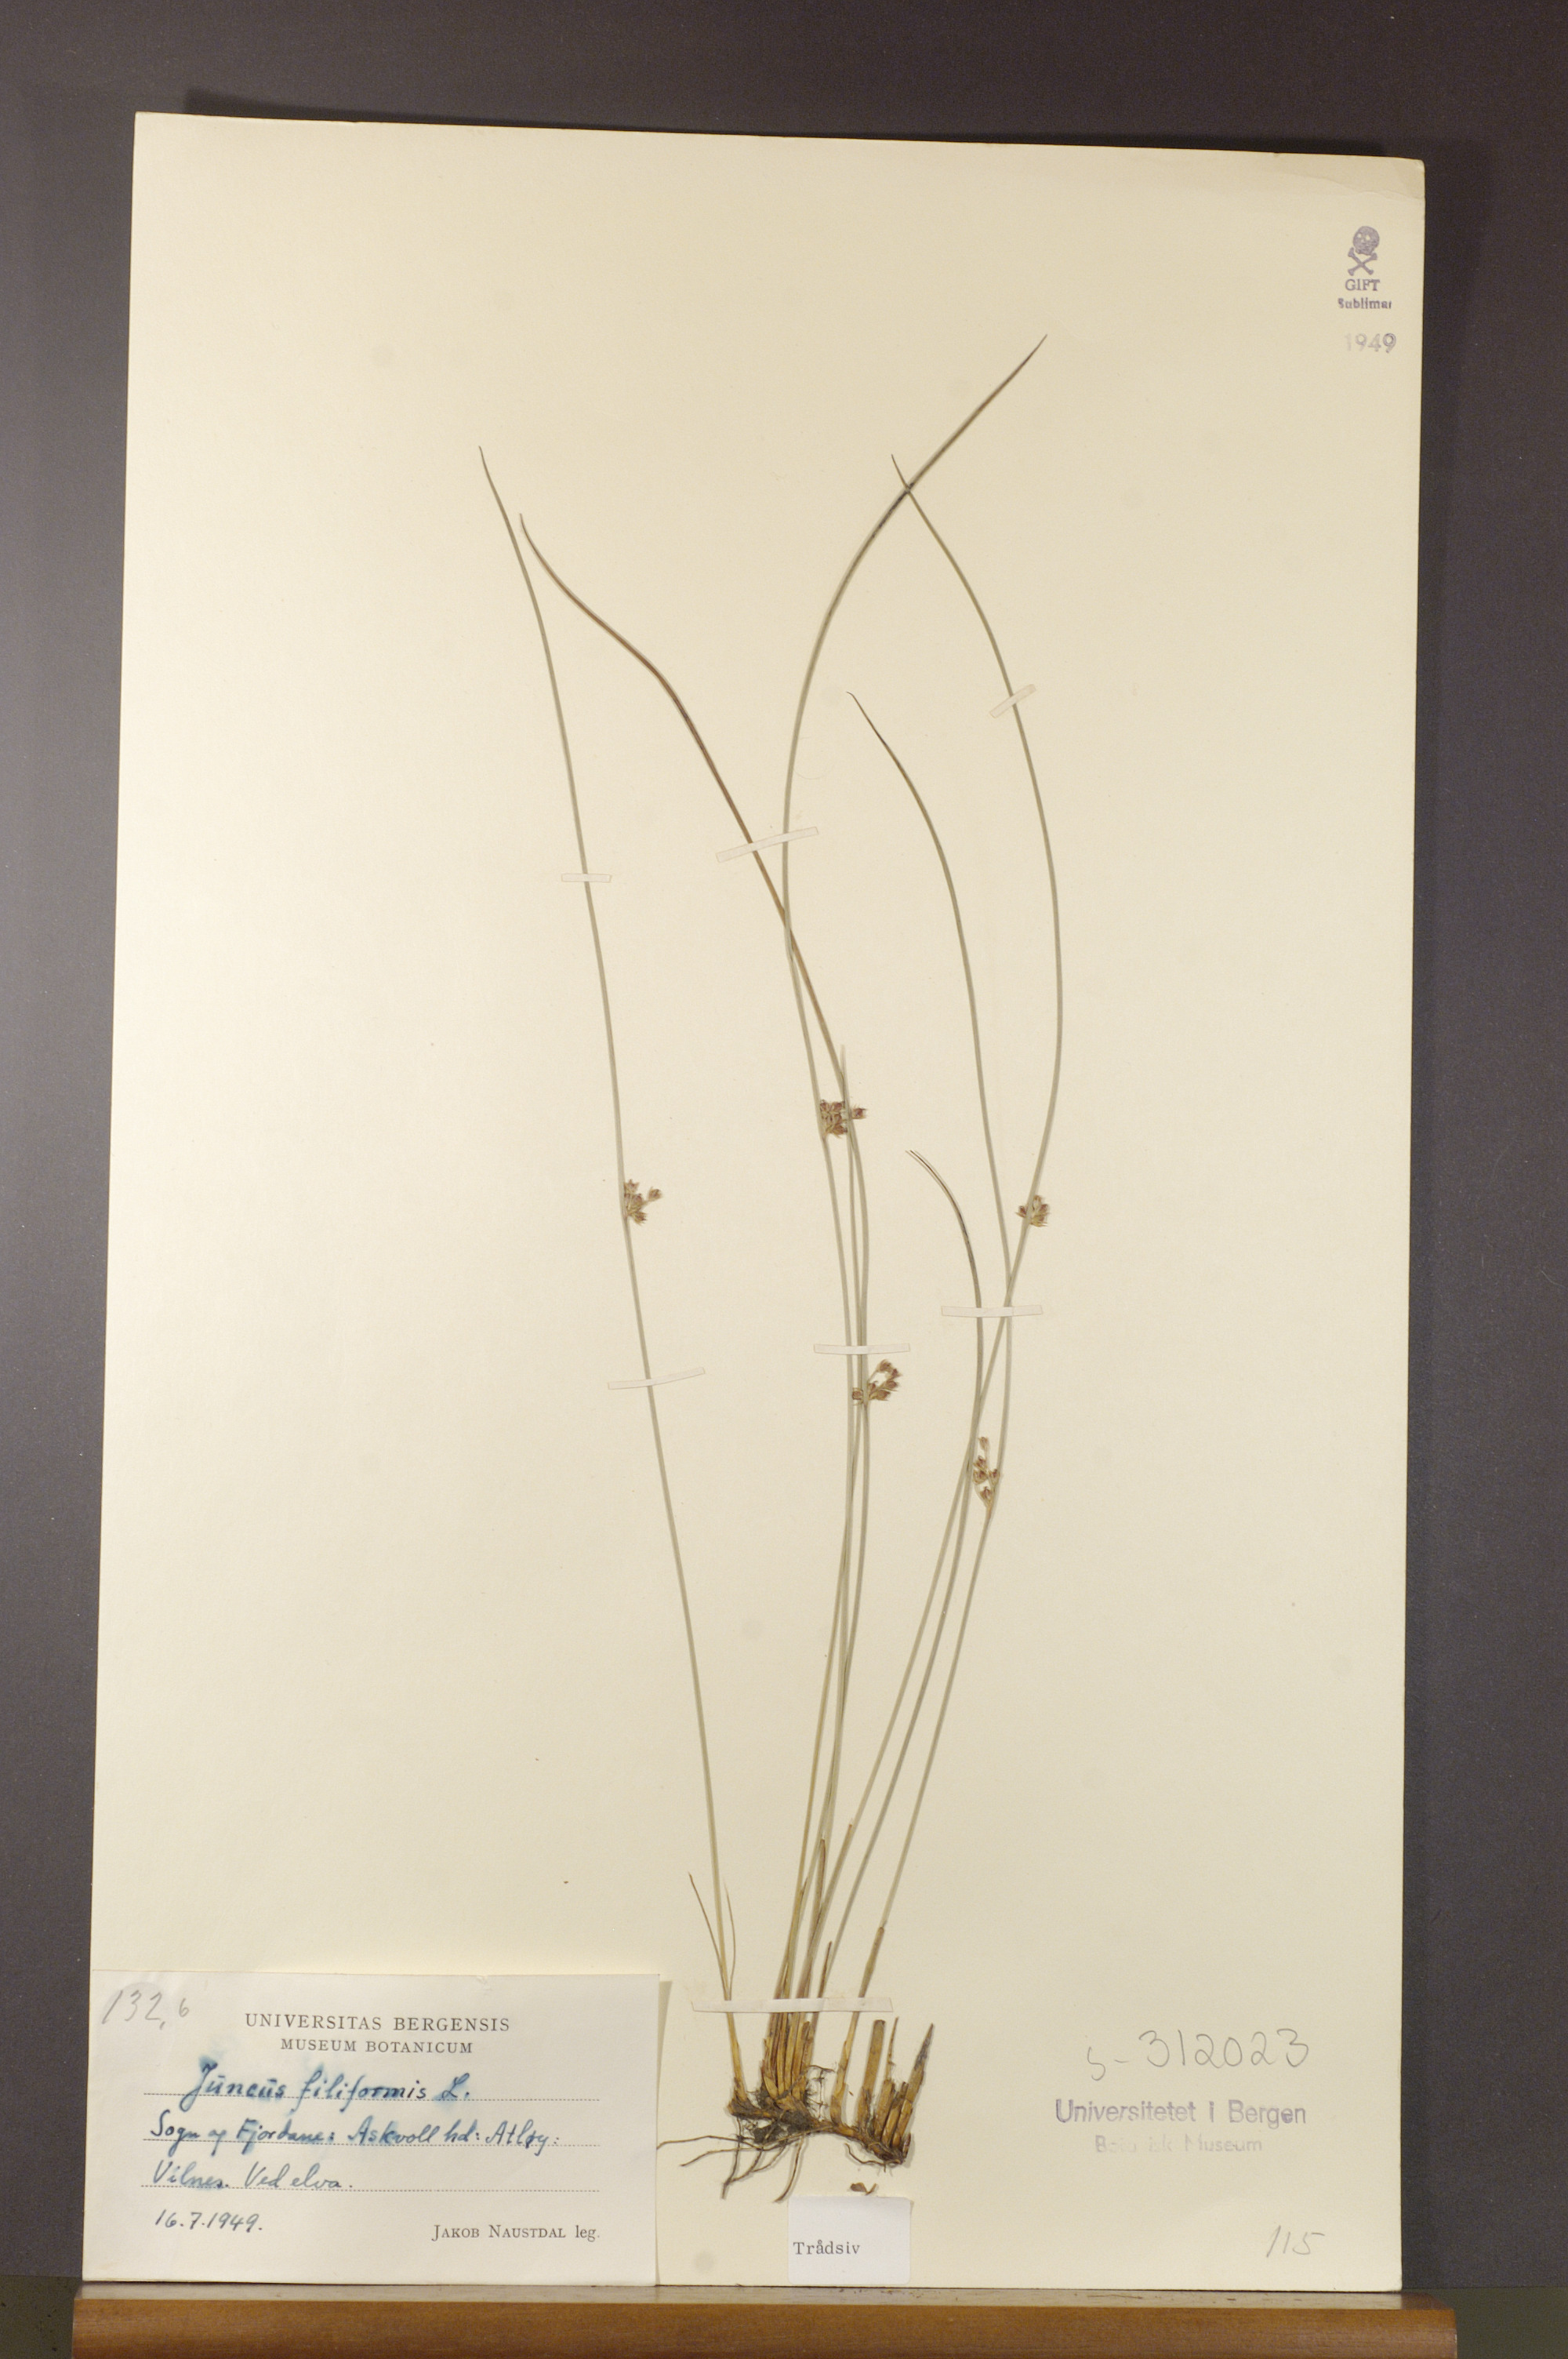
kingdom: Plantae
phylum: Tracheophyta
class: Liliopsida
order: Poales
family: Juncaceae
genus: Juncus
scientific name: Juncus filiformis
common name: Thread rush
